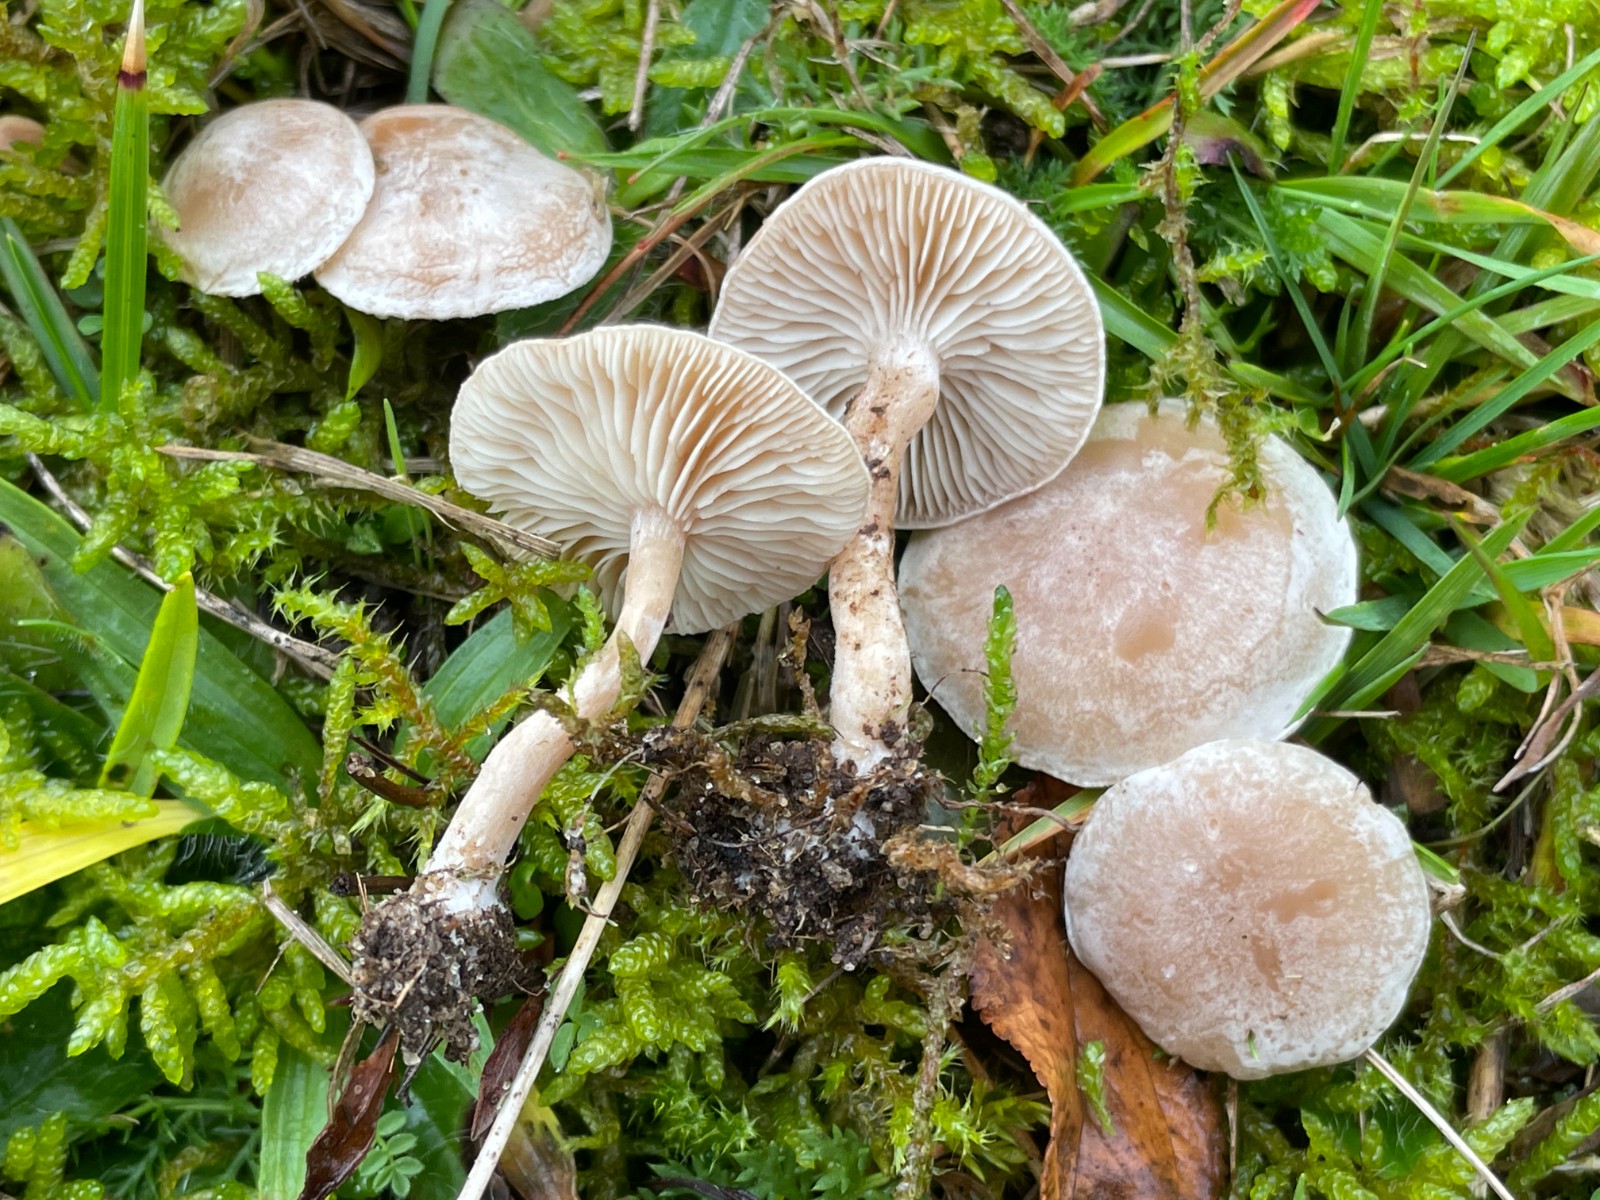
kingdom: Fungi
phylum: Basidiomycota
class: Agaricomycetes
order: Agaricales
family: Tricholomataceae
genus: Clitocybe
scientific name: Clitocybe rivulosa
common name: eng-tragthat
